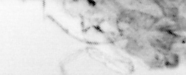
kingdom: Animalia
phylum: Arthropoda
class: Copepoda
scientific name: Copepoda
